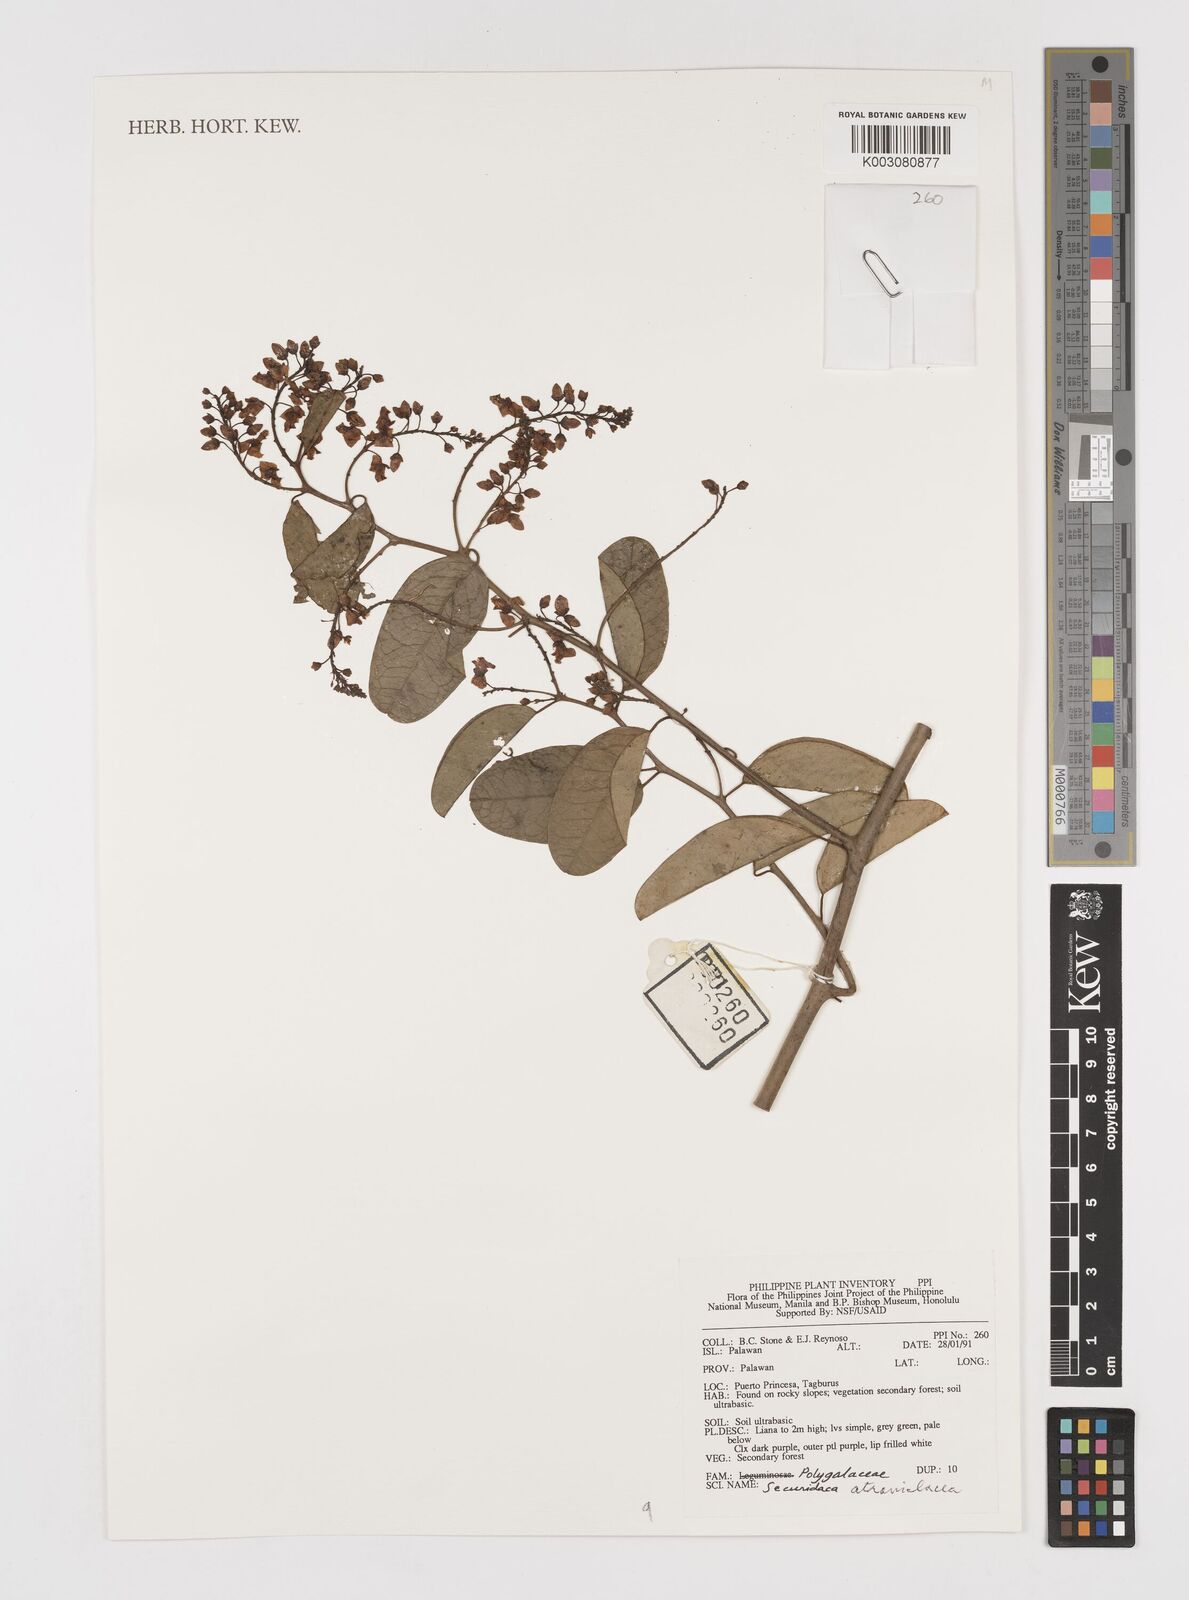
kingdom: Plantae
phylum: Tracheophyta
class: Magnoliopsida
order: Fabales
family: Polygalaceae
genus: Securidaca
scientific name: Securidaca atroviolacea
